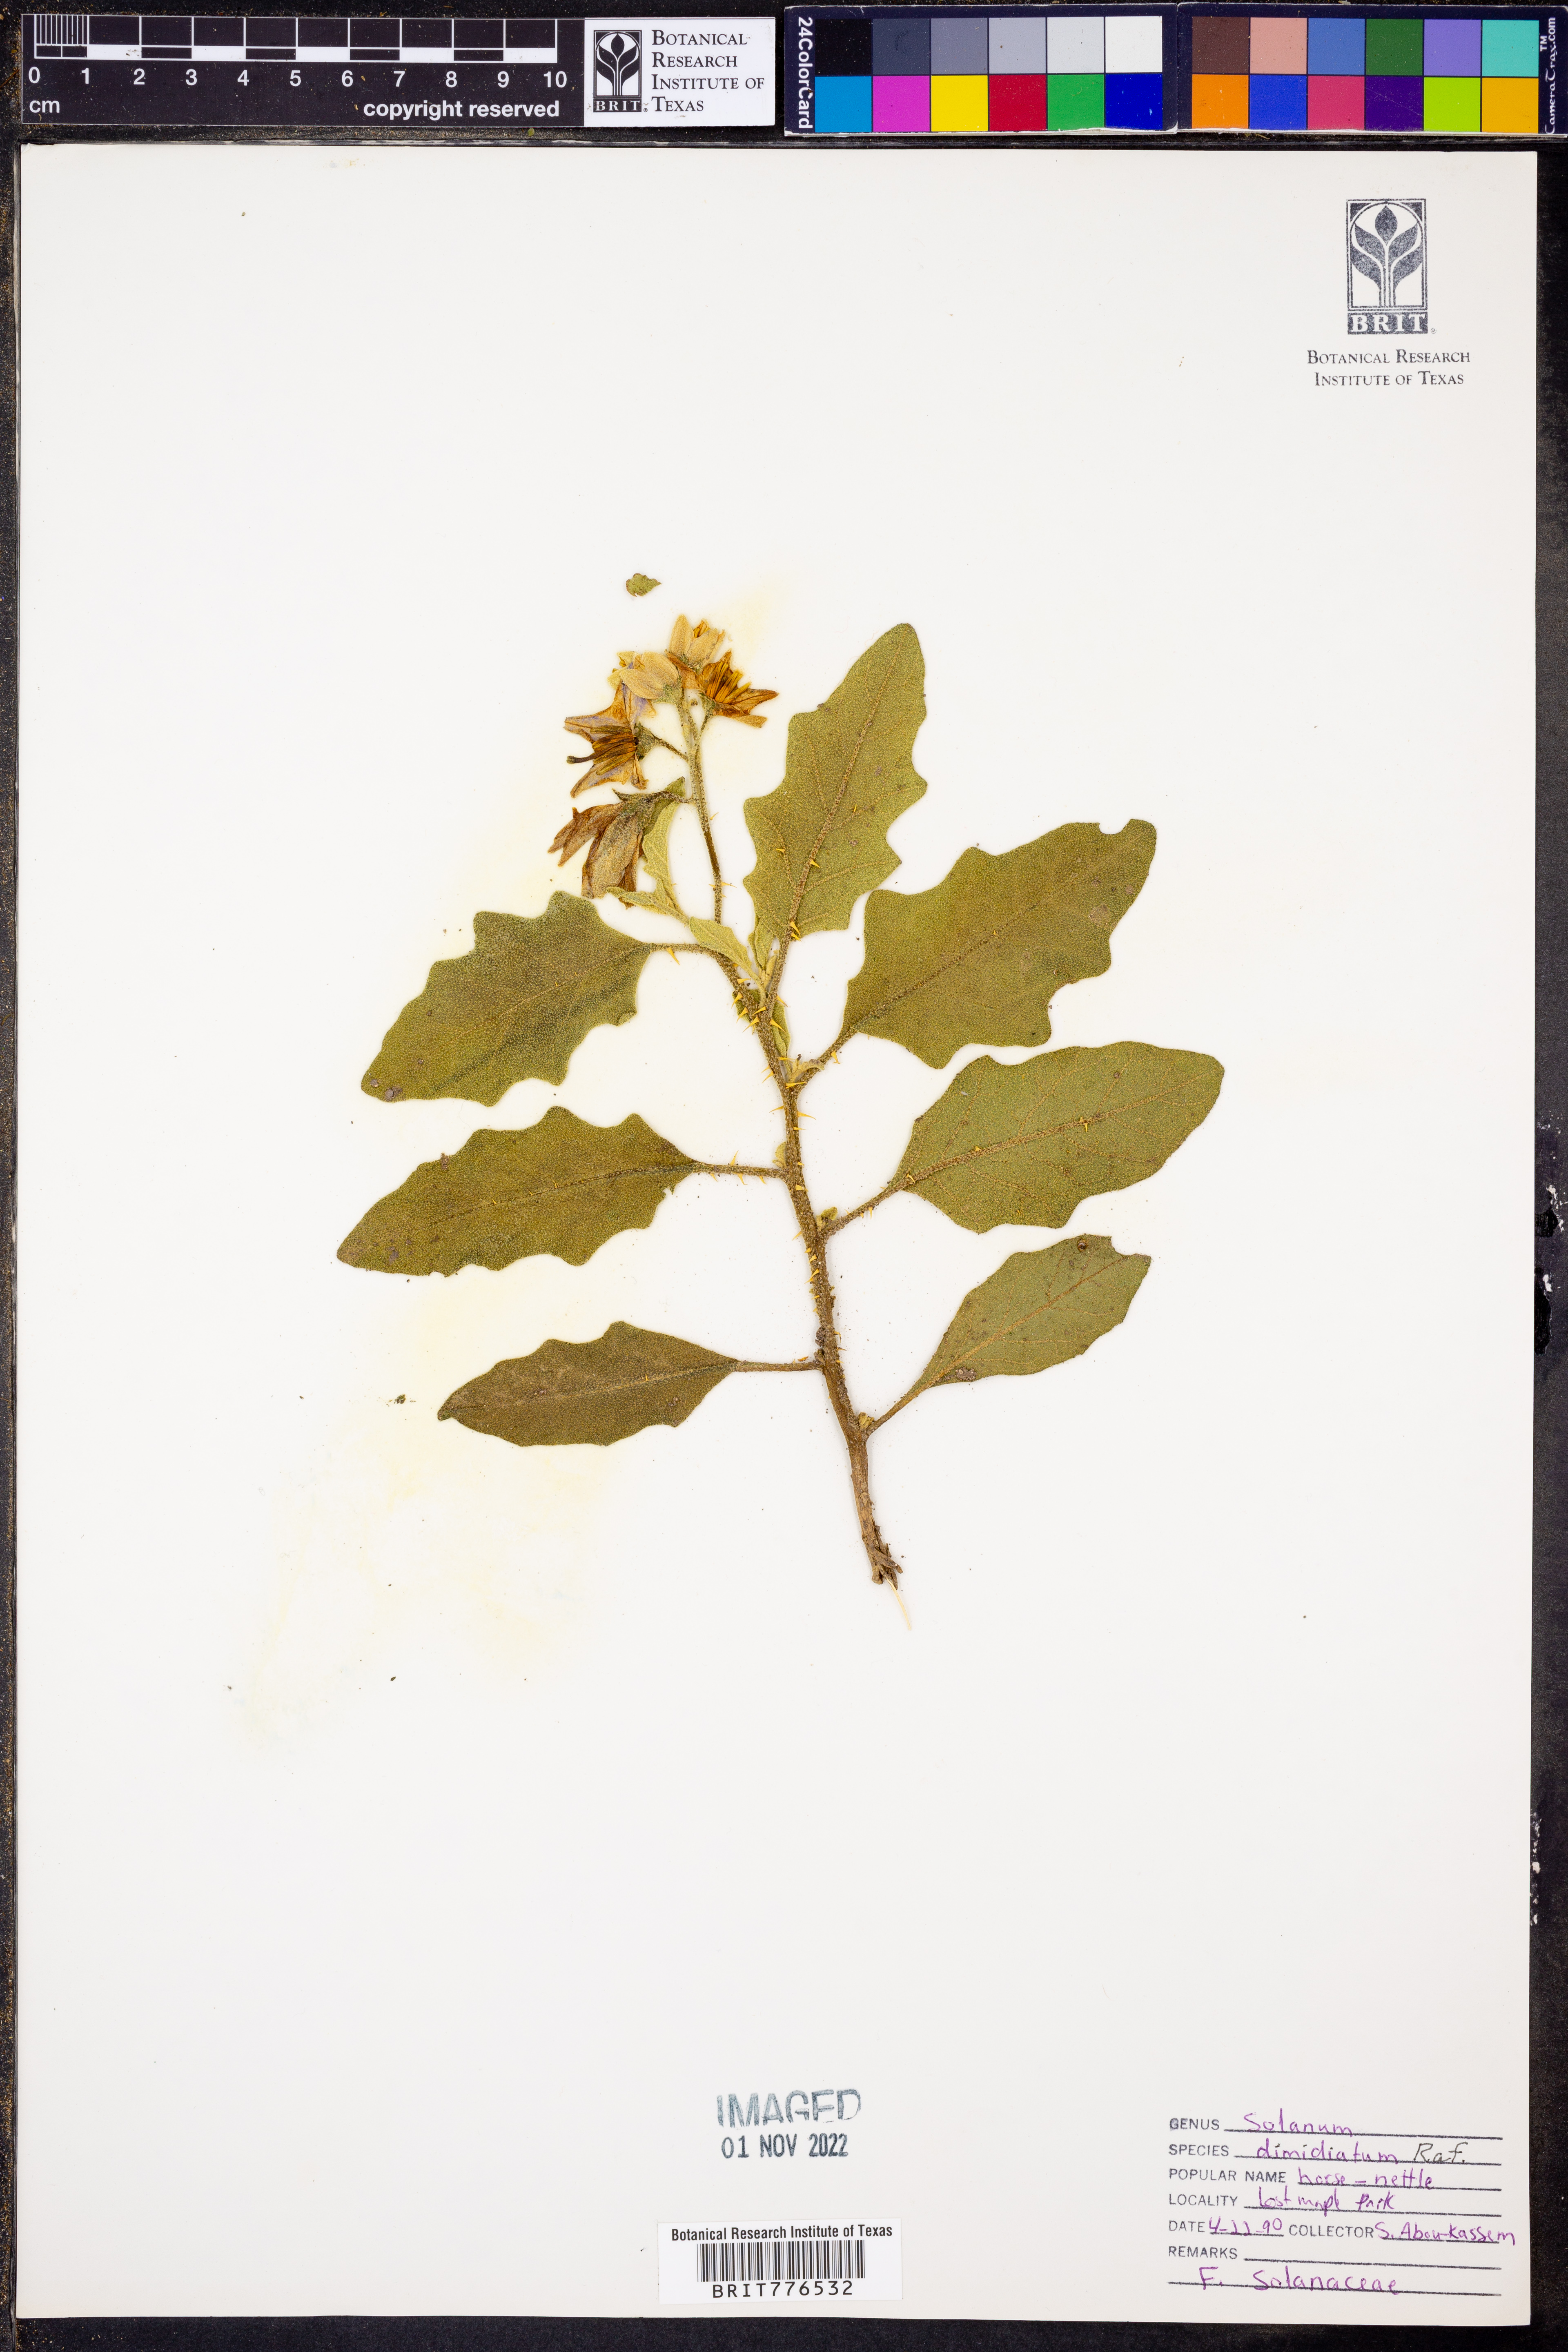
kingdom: Plantae
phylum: Tracheophyta
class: Magnoliopsida
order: Solanales
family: Solanaceae
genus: Solanum
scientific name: Solanum dimidiatum
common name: Carolina horse-nettle
